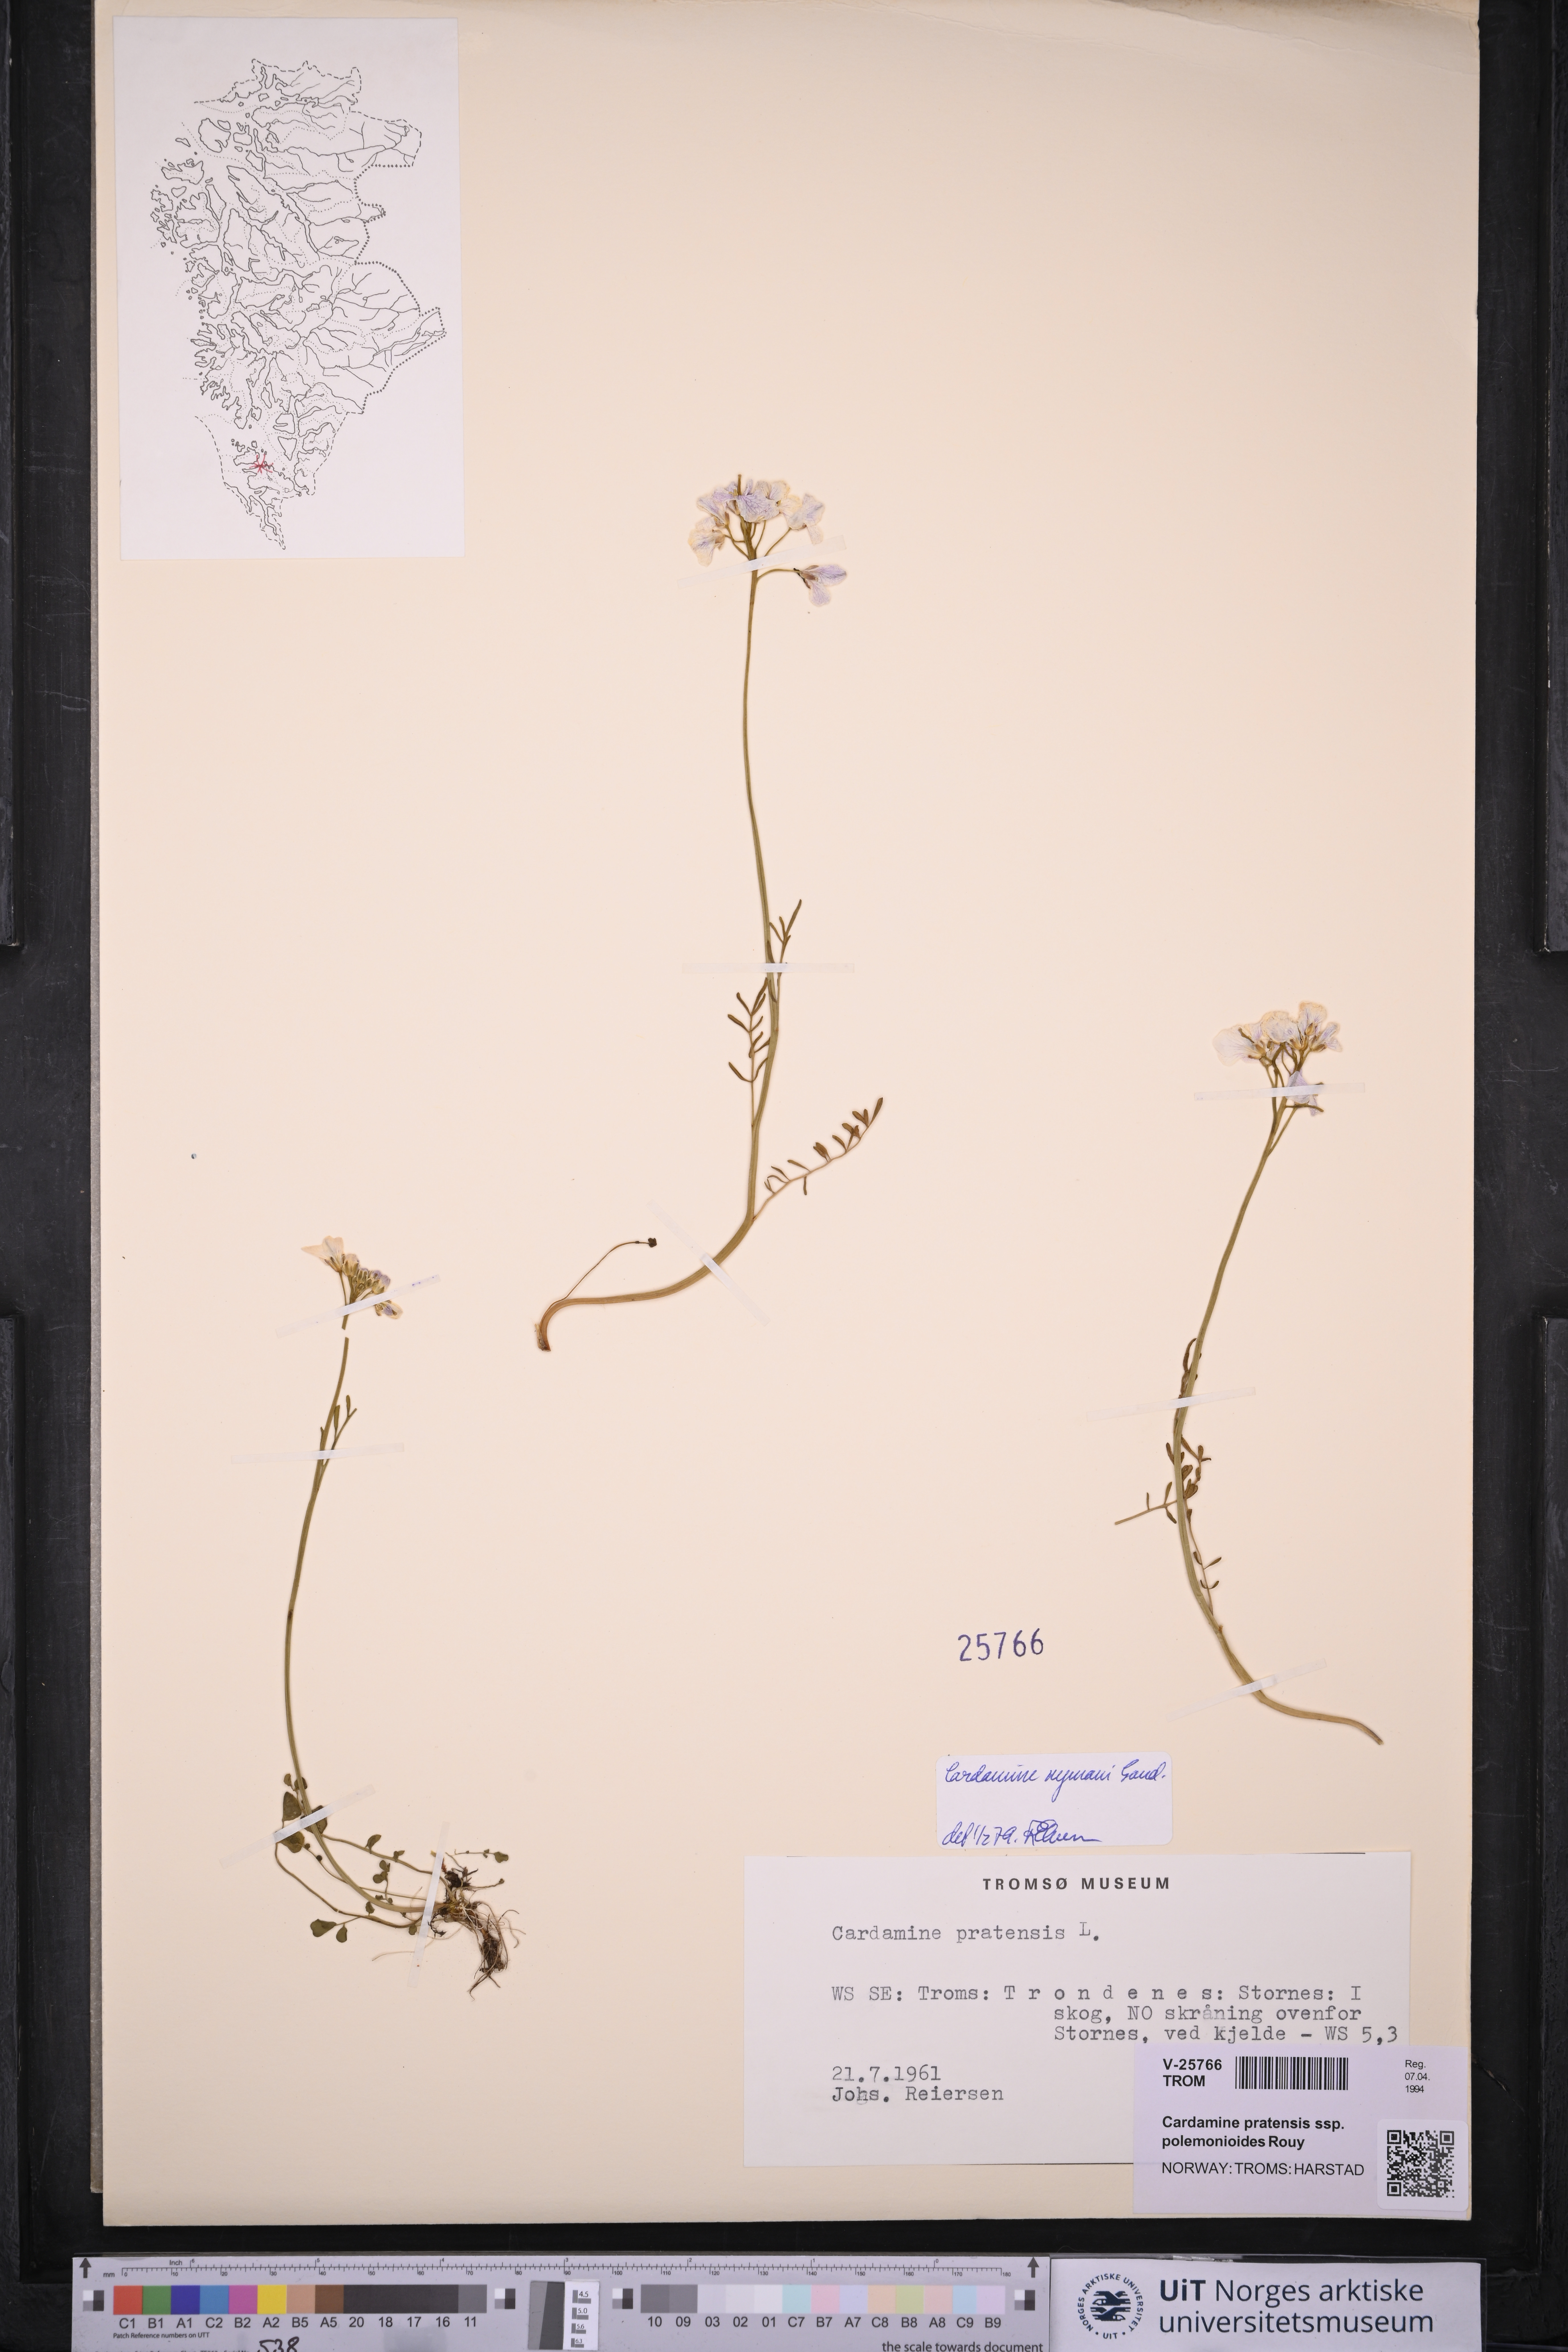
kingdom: Plantae
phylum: Tracheophyta
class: Magnoliopsida
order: Brassicales
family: Brassicaceae
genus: Cardamine
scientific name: Cardamine nymanii
